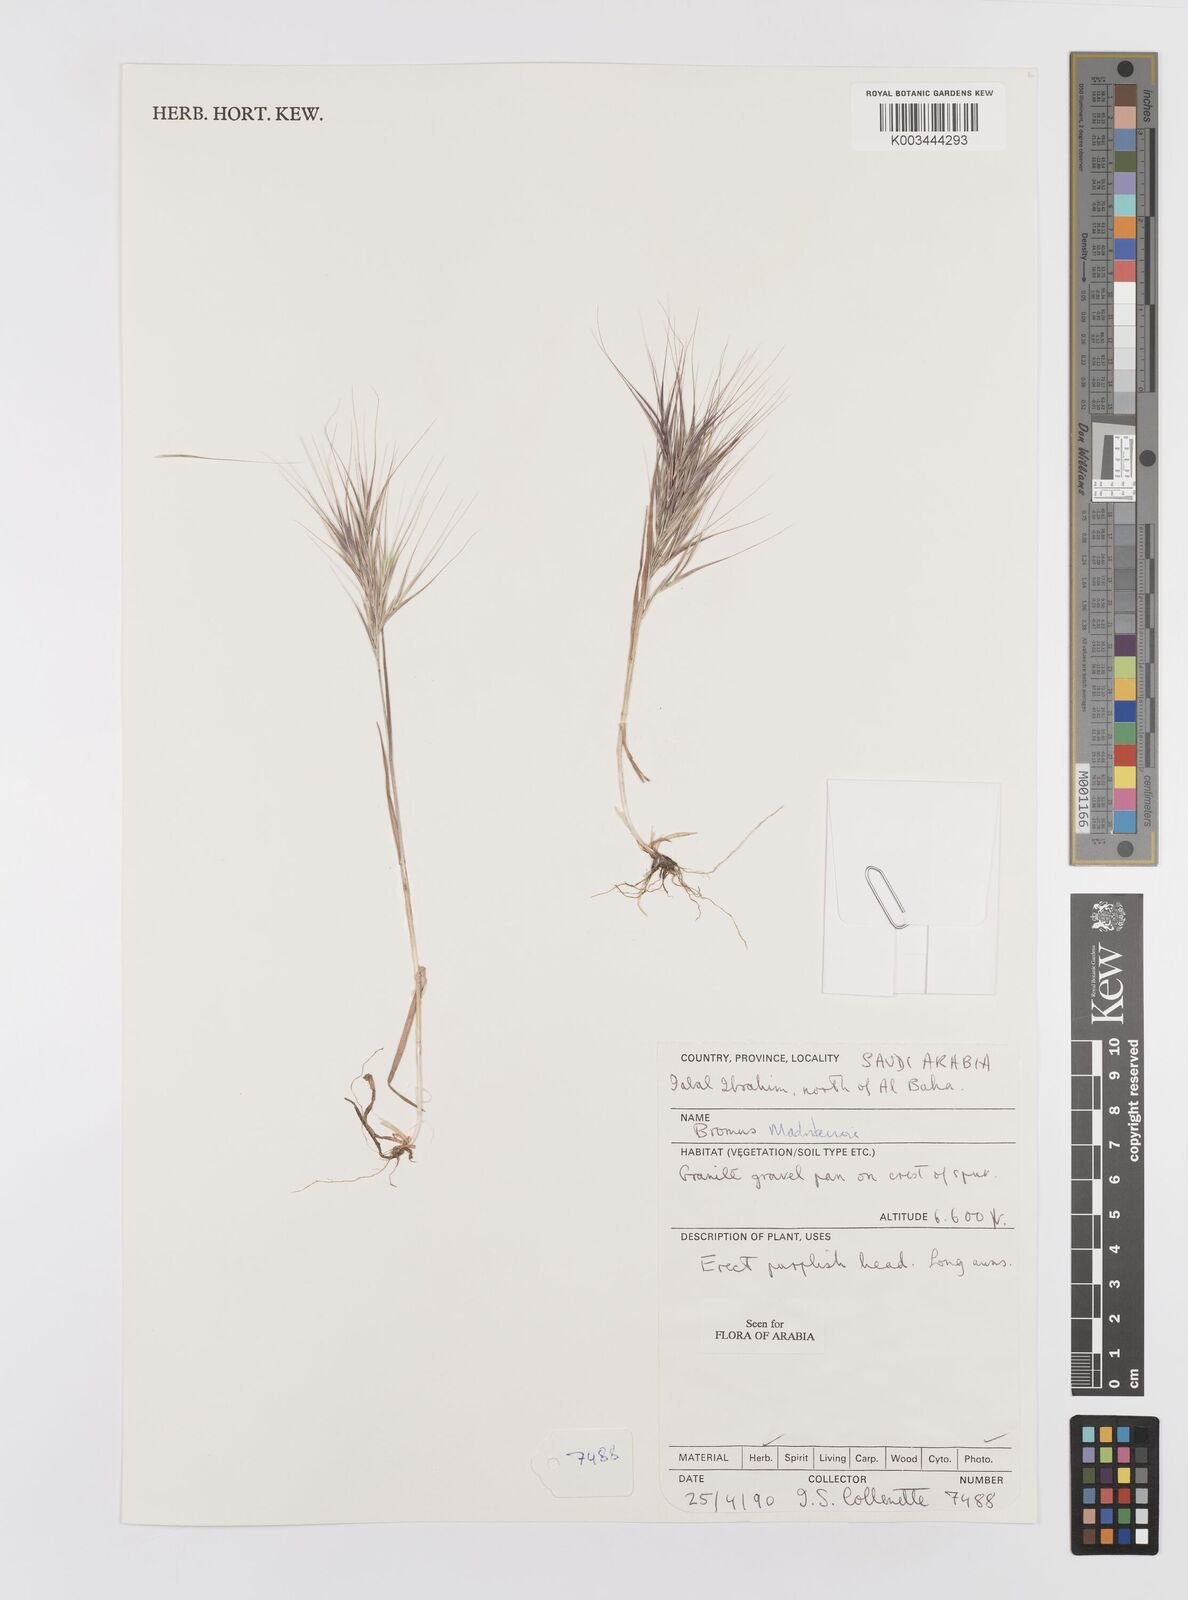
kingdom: Plantae
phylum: Tracheophyta
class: Liliopsida
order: Poales
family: Poaceae
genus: Bromus
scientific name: Bromus madritensis
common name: Compact brome
